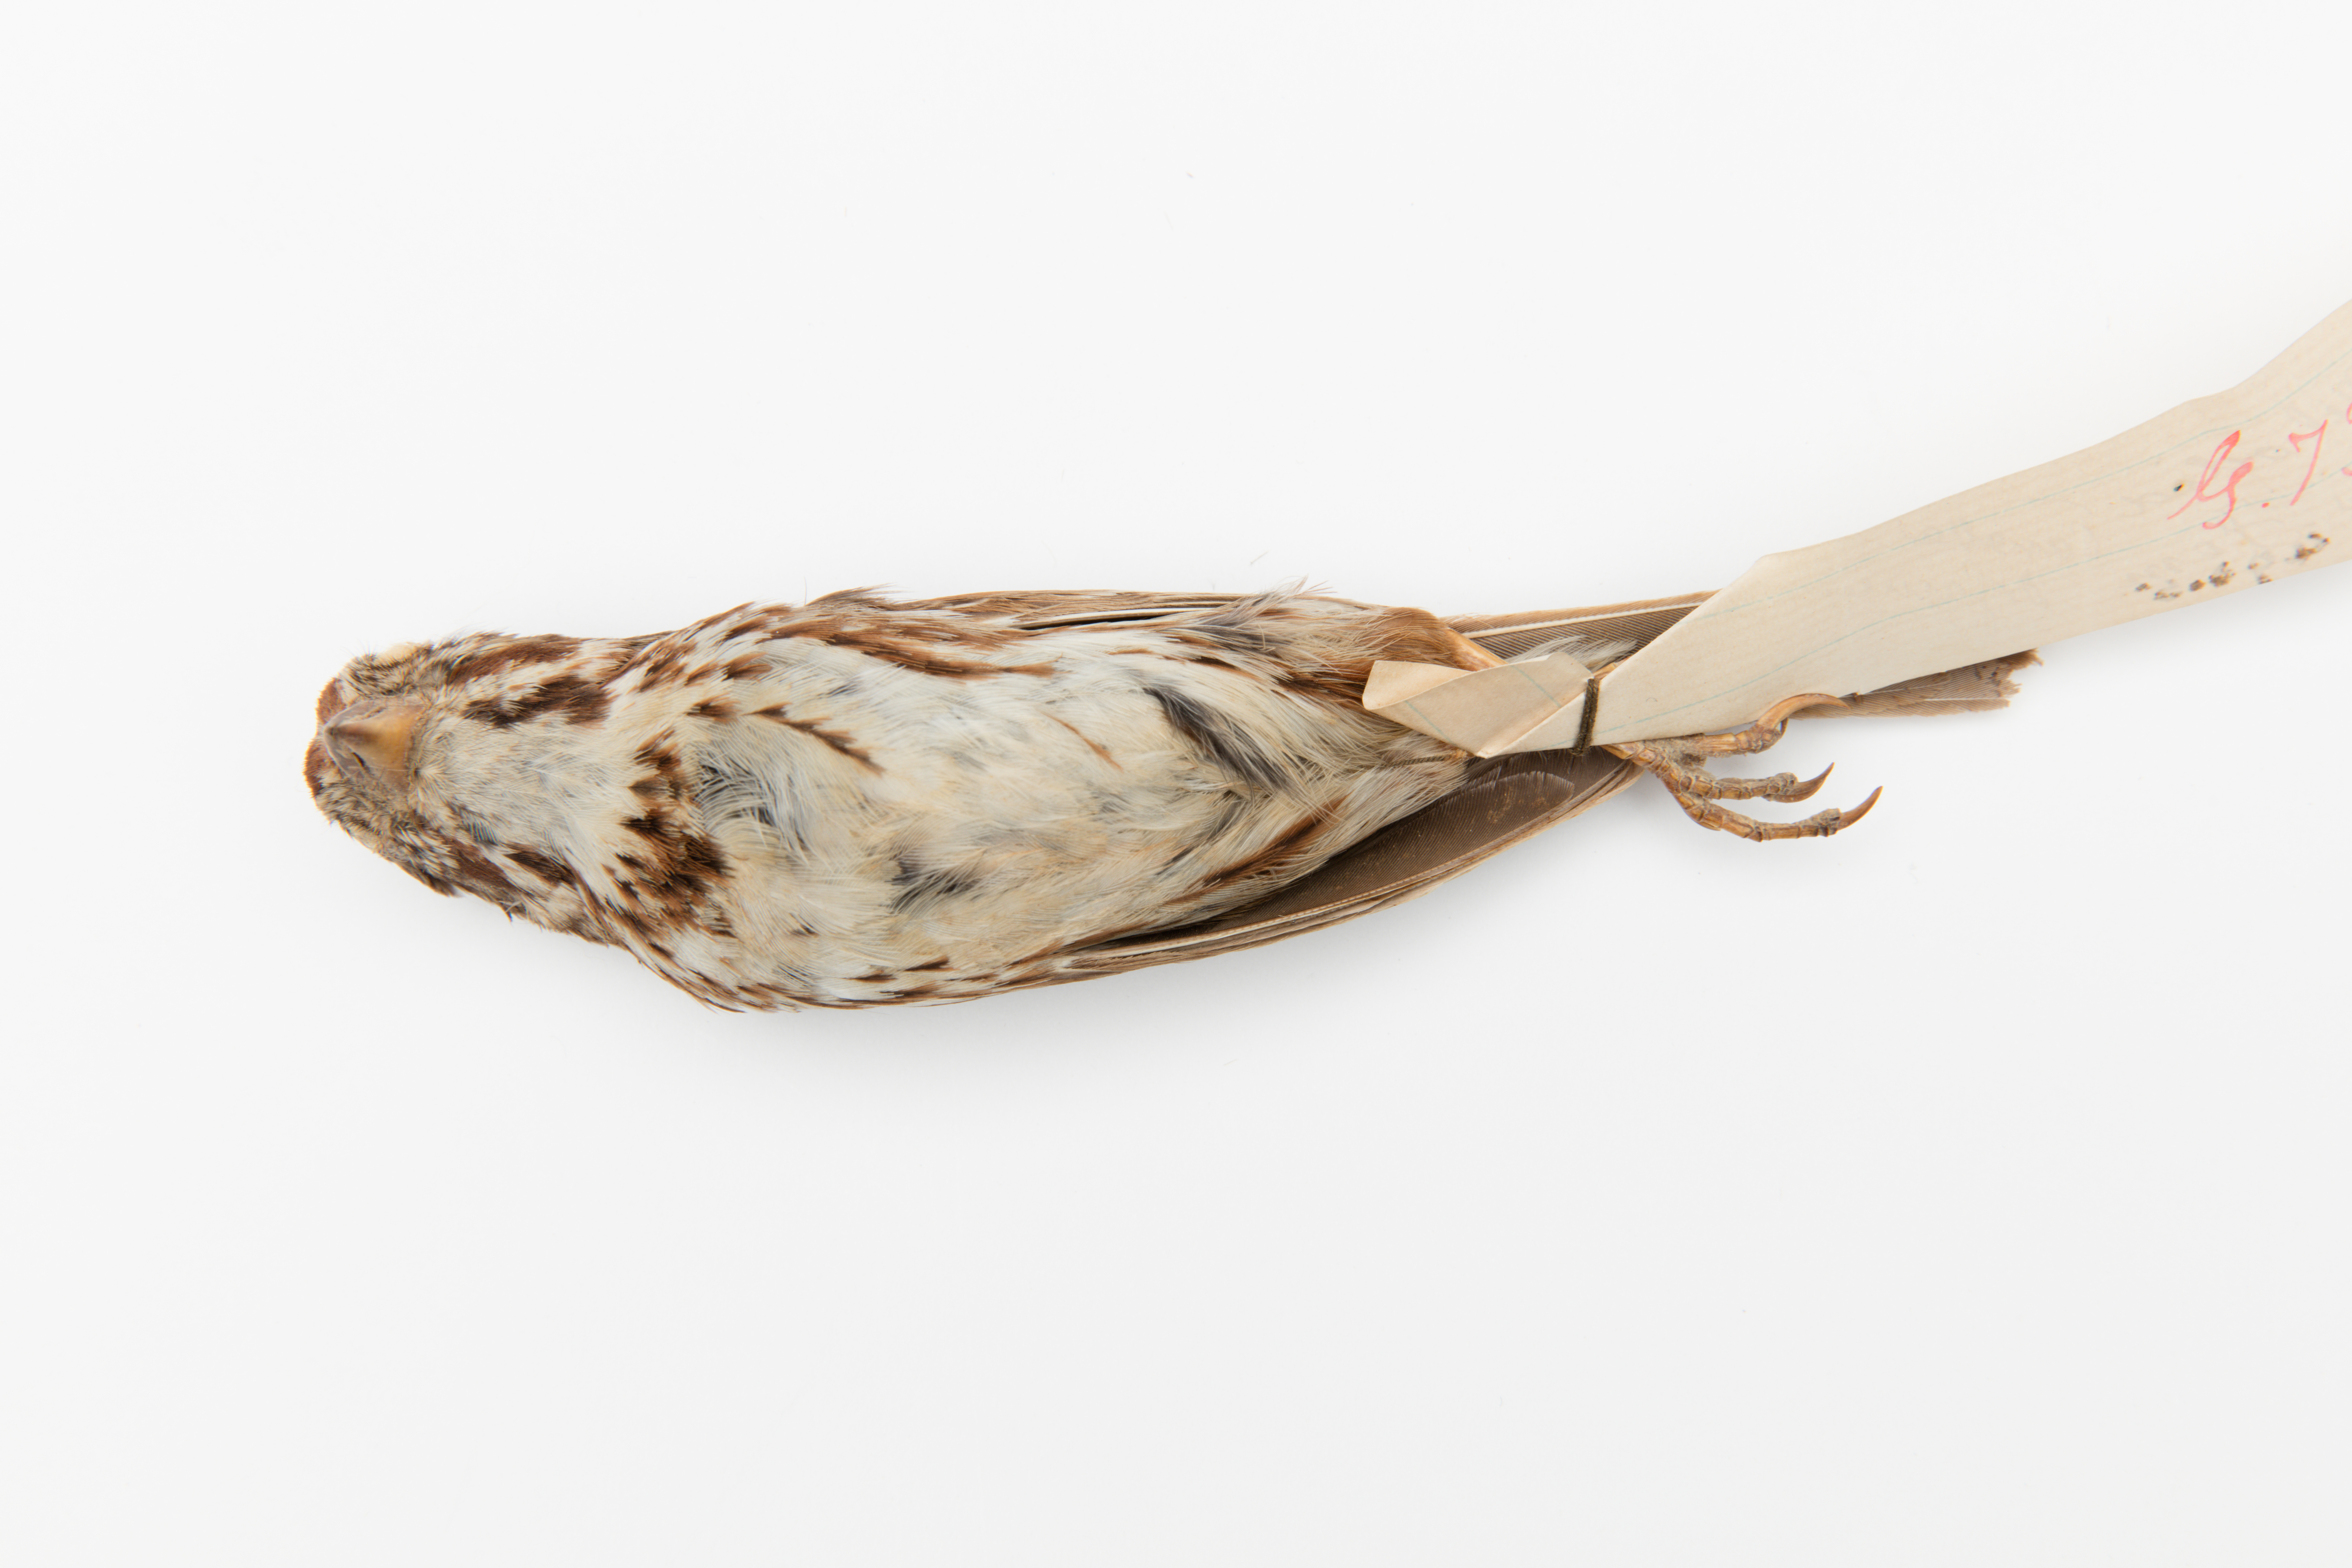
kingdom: Animalia
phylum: Chordata
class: Aves
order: Passeriformes
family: Passerellidae
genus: Melospiza
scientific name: Melospiza melodia
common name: Song sparrow
